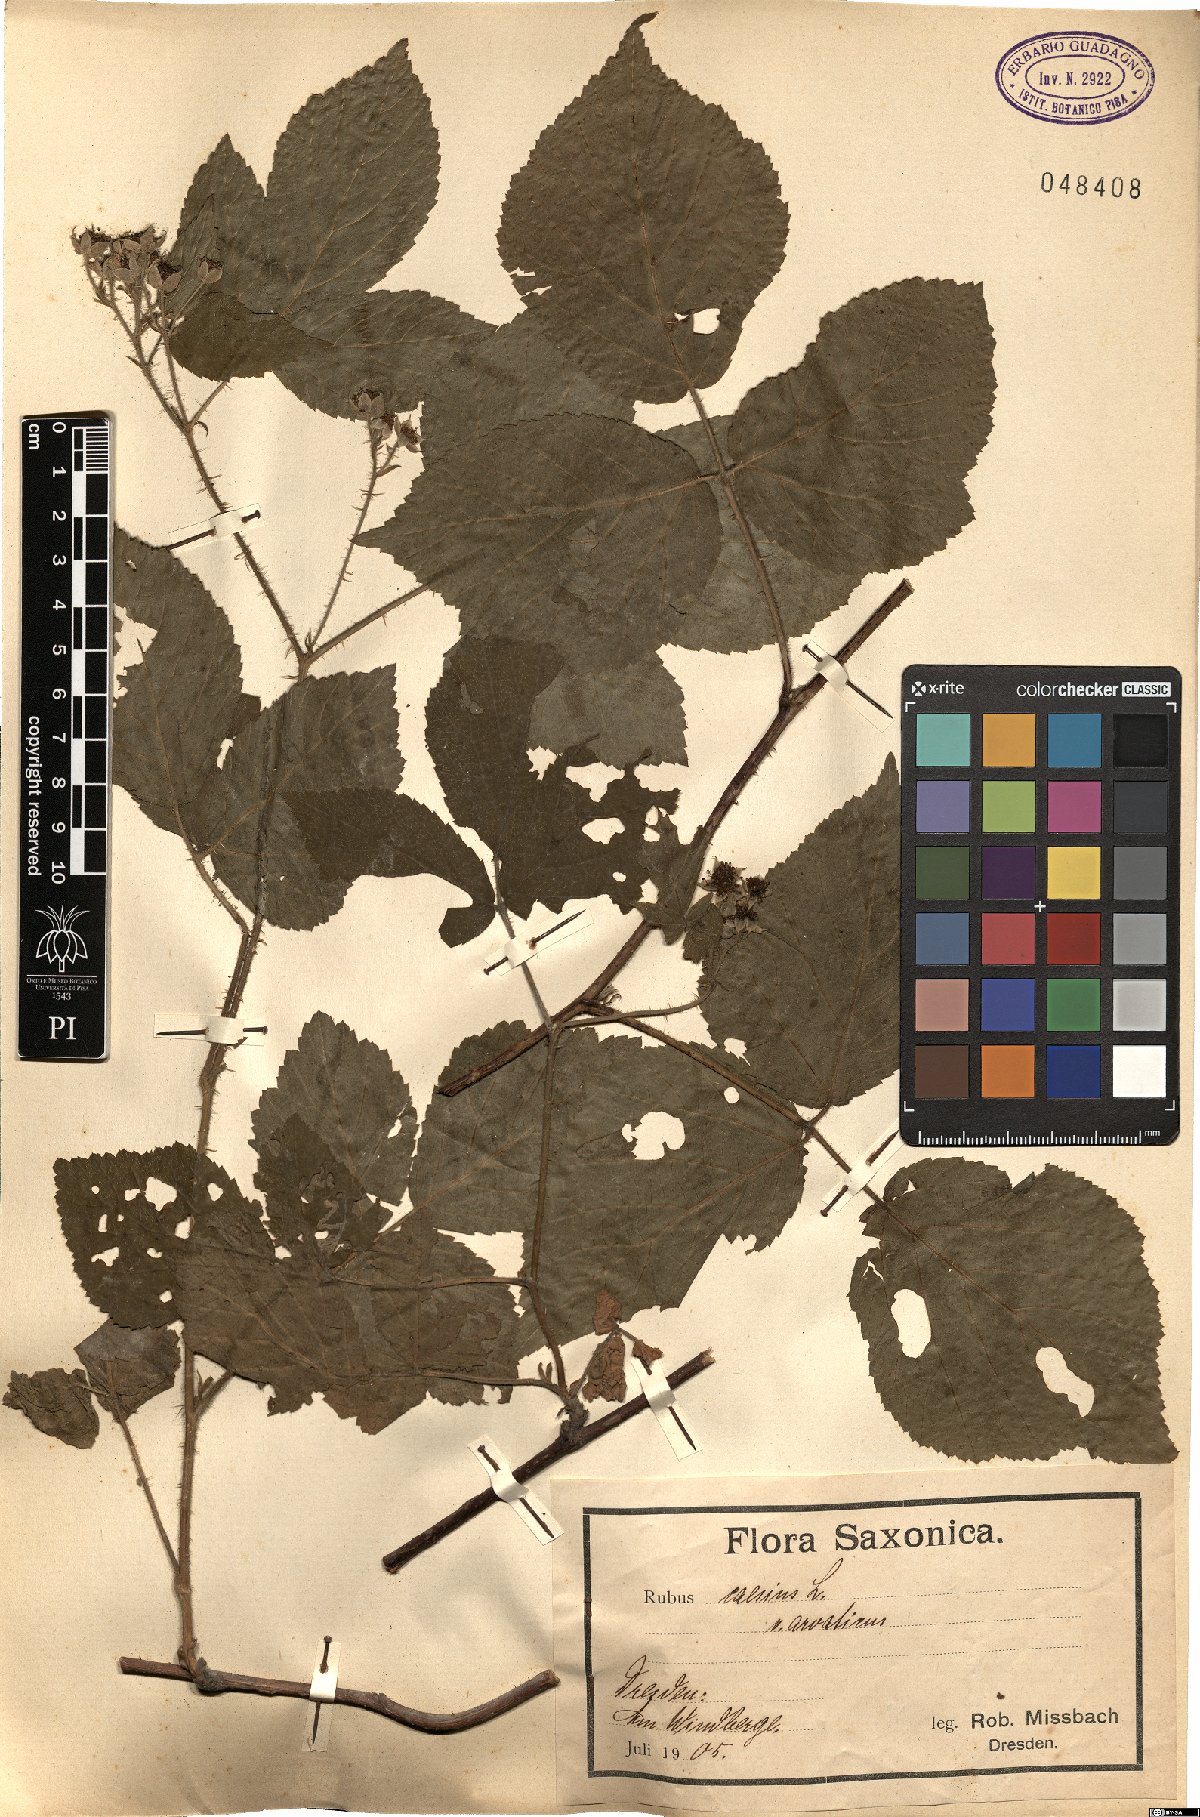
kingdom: Plantae
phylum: Tracheophyta
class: Magnoliopsida
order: Rosales
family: Rosaceae
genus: Rubus
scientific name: Rubus caesius
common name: Dewberry
